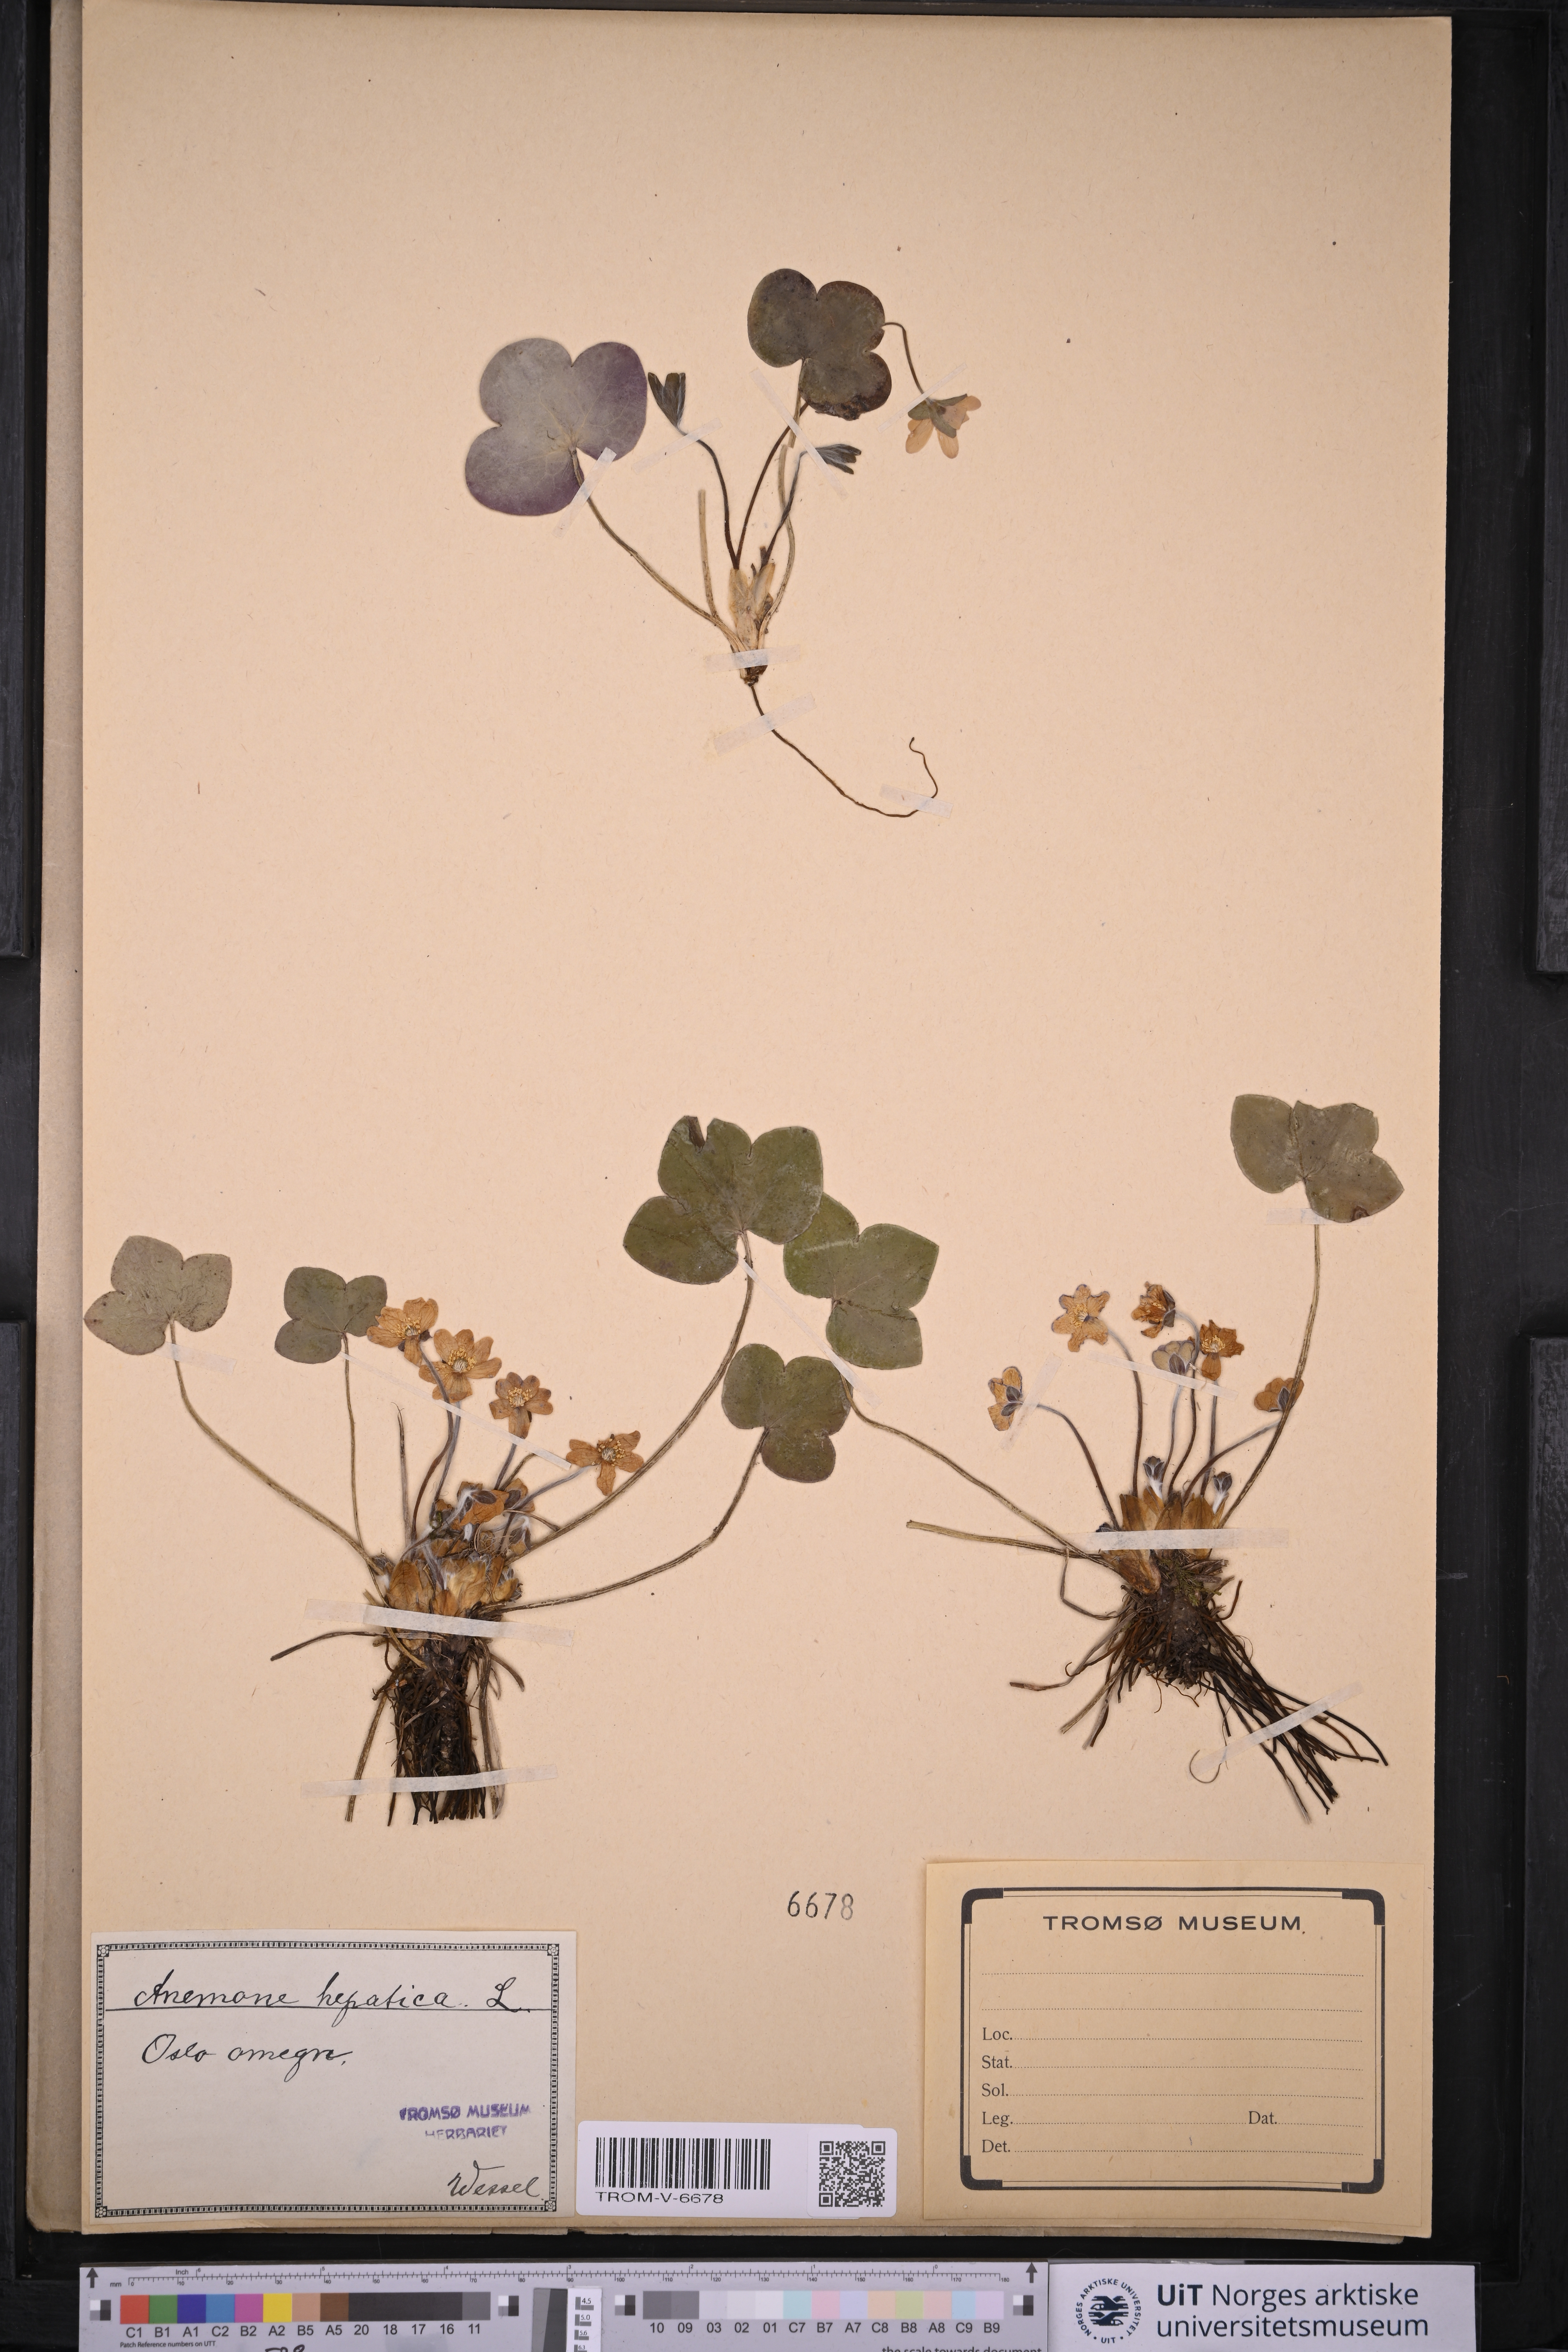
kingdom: Plantae
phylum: Tracheophyta
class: Magnoliopsida
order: Ranunculales
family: Ranunculaceae
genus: Hepatica
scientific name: Hepatica nobilis
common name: Liverleaf
